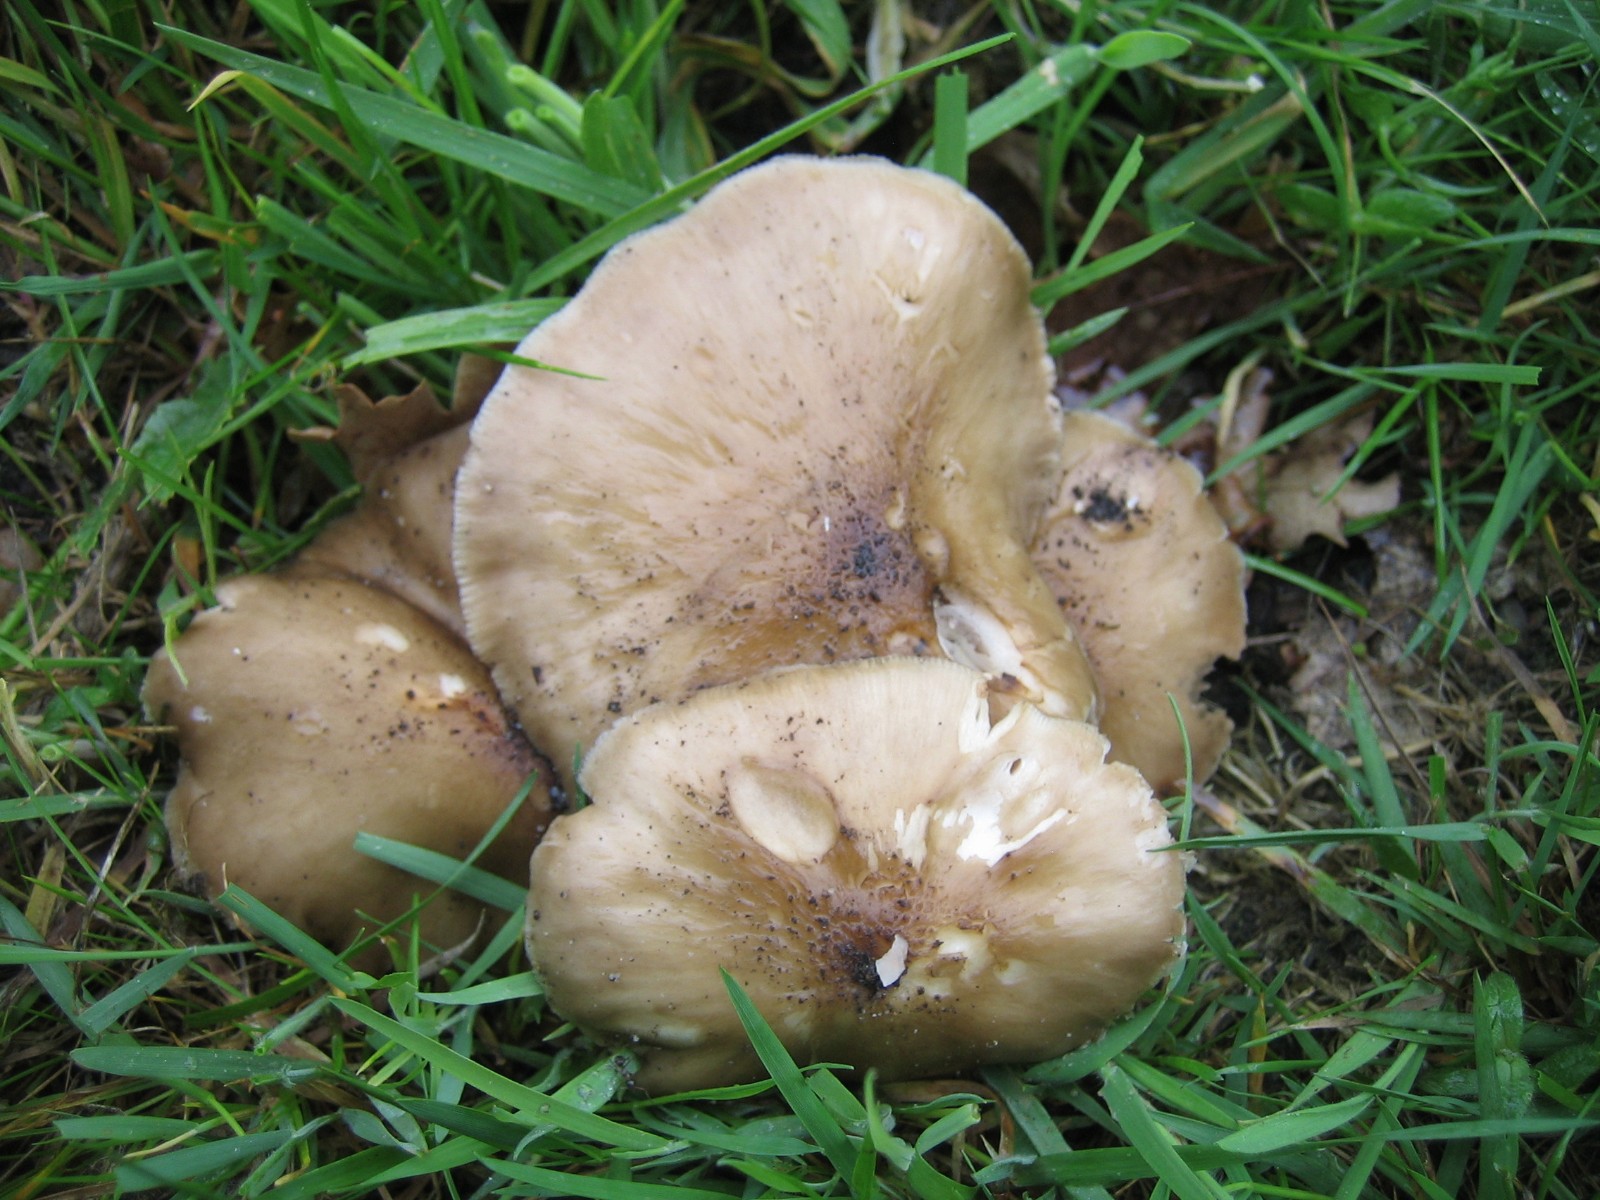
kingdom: Fungi
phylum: Basidiomycota
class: Agaricomycetes
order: Agaricales
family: Pluteaceae
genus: Pluteus
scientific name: Pluteus cervinus
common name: sodfarvet skærmhat
